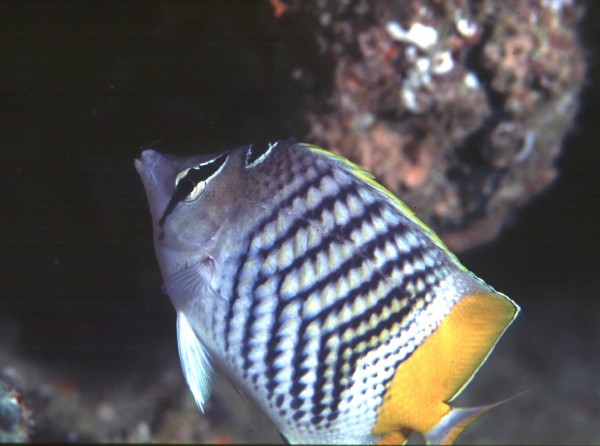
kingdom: Animalia
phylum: Chordata
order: Perciformes
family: Chaetodontidae
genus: Chaetodon
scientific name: Chaetodon madagaskariensis
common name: Madagascar butterflyfish
